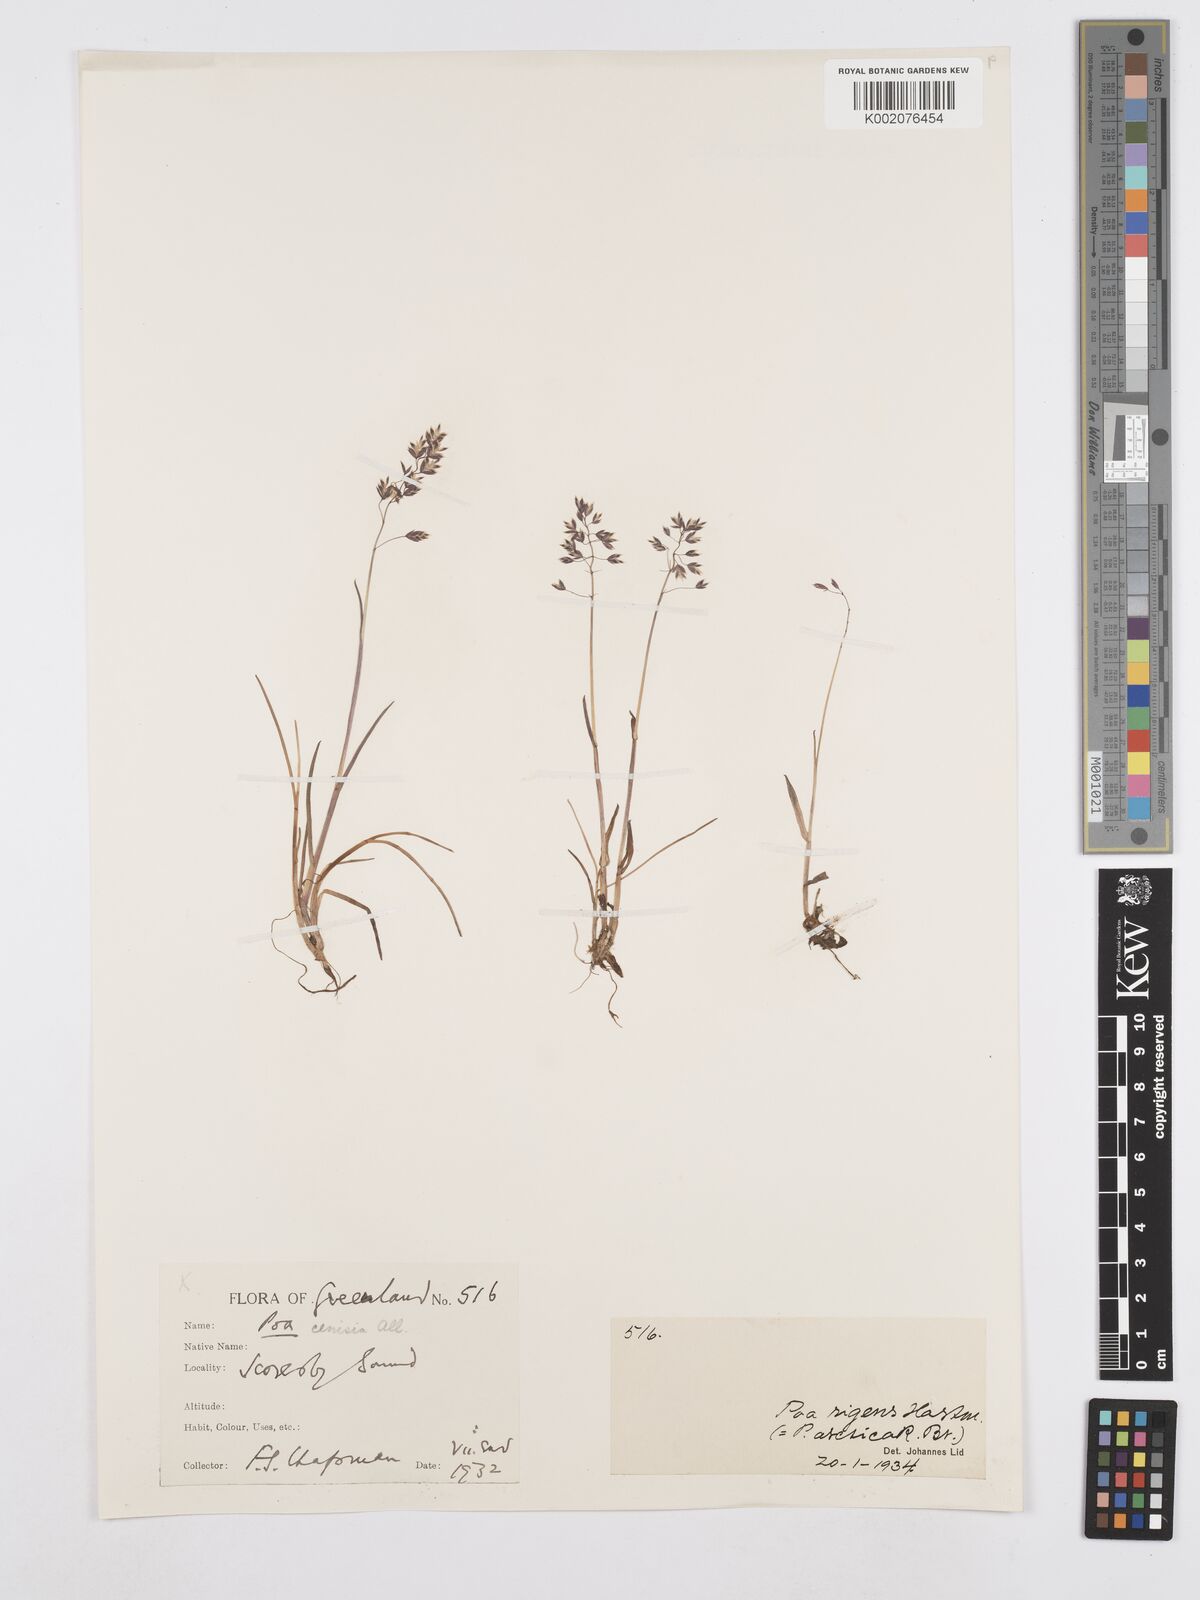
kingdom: Plantae
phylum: Tracheophyta
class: Liliopsida
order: Poales
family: Poaceae
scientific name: Poaceae
